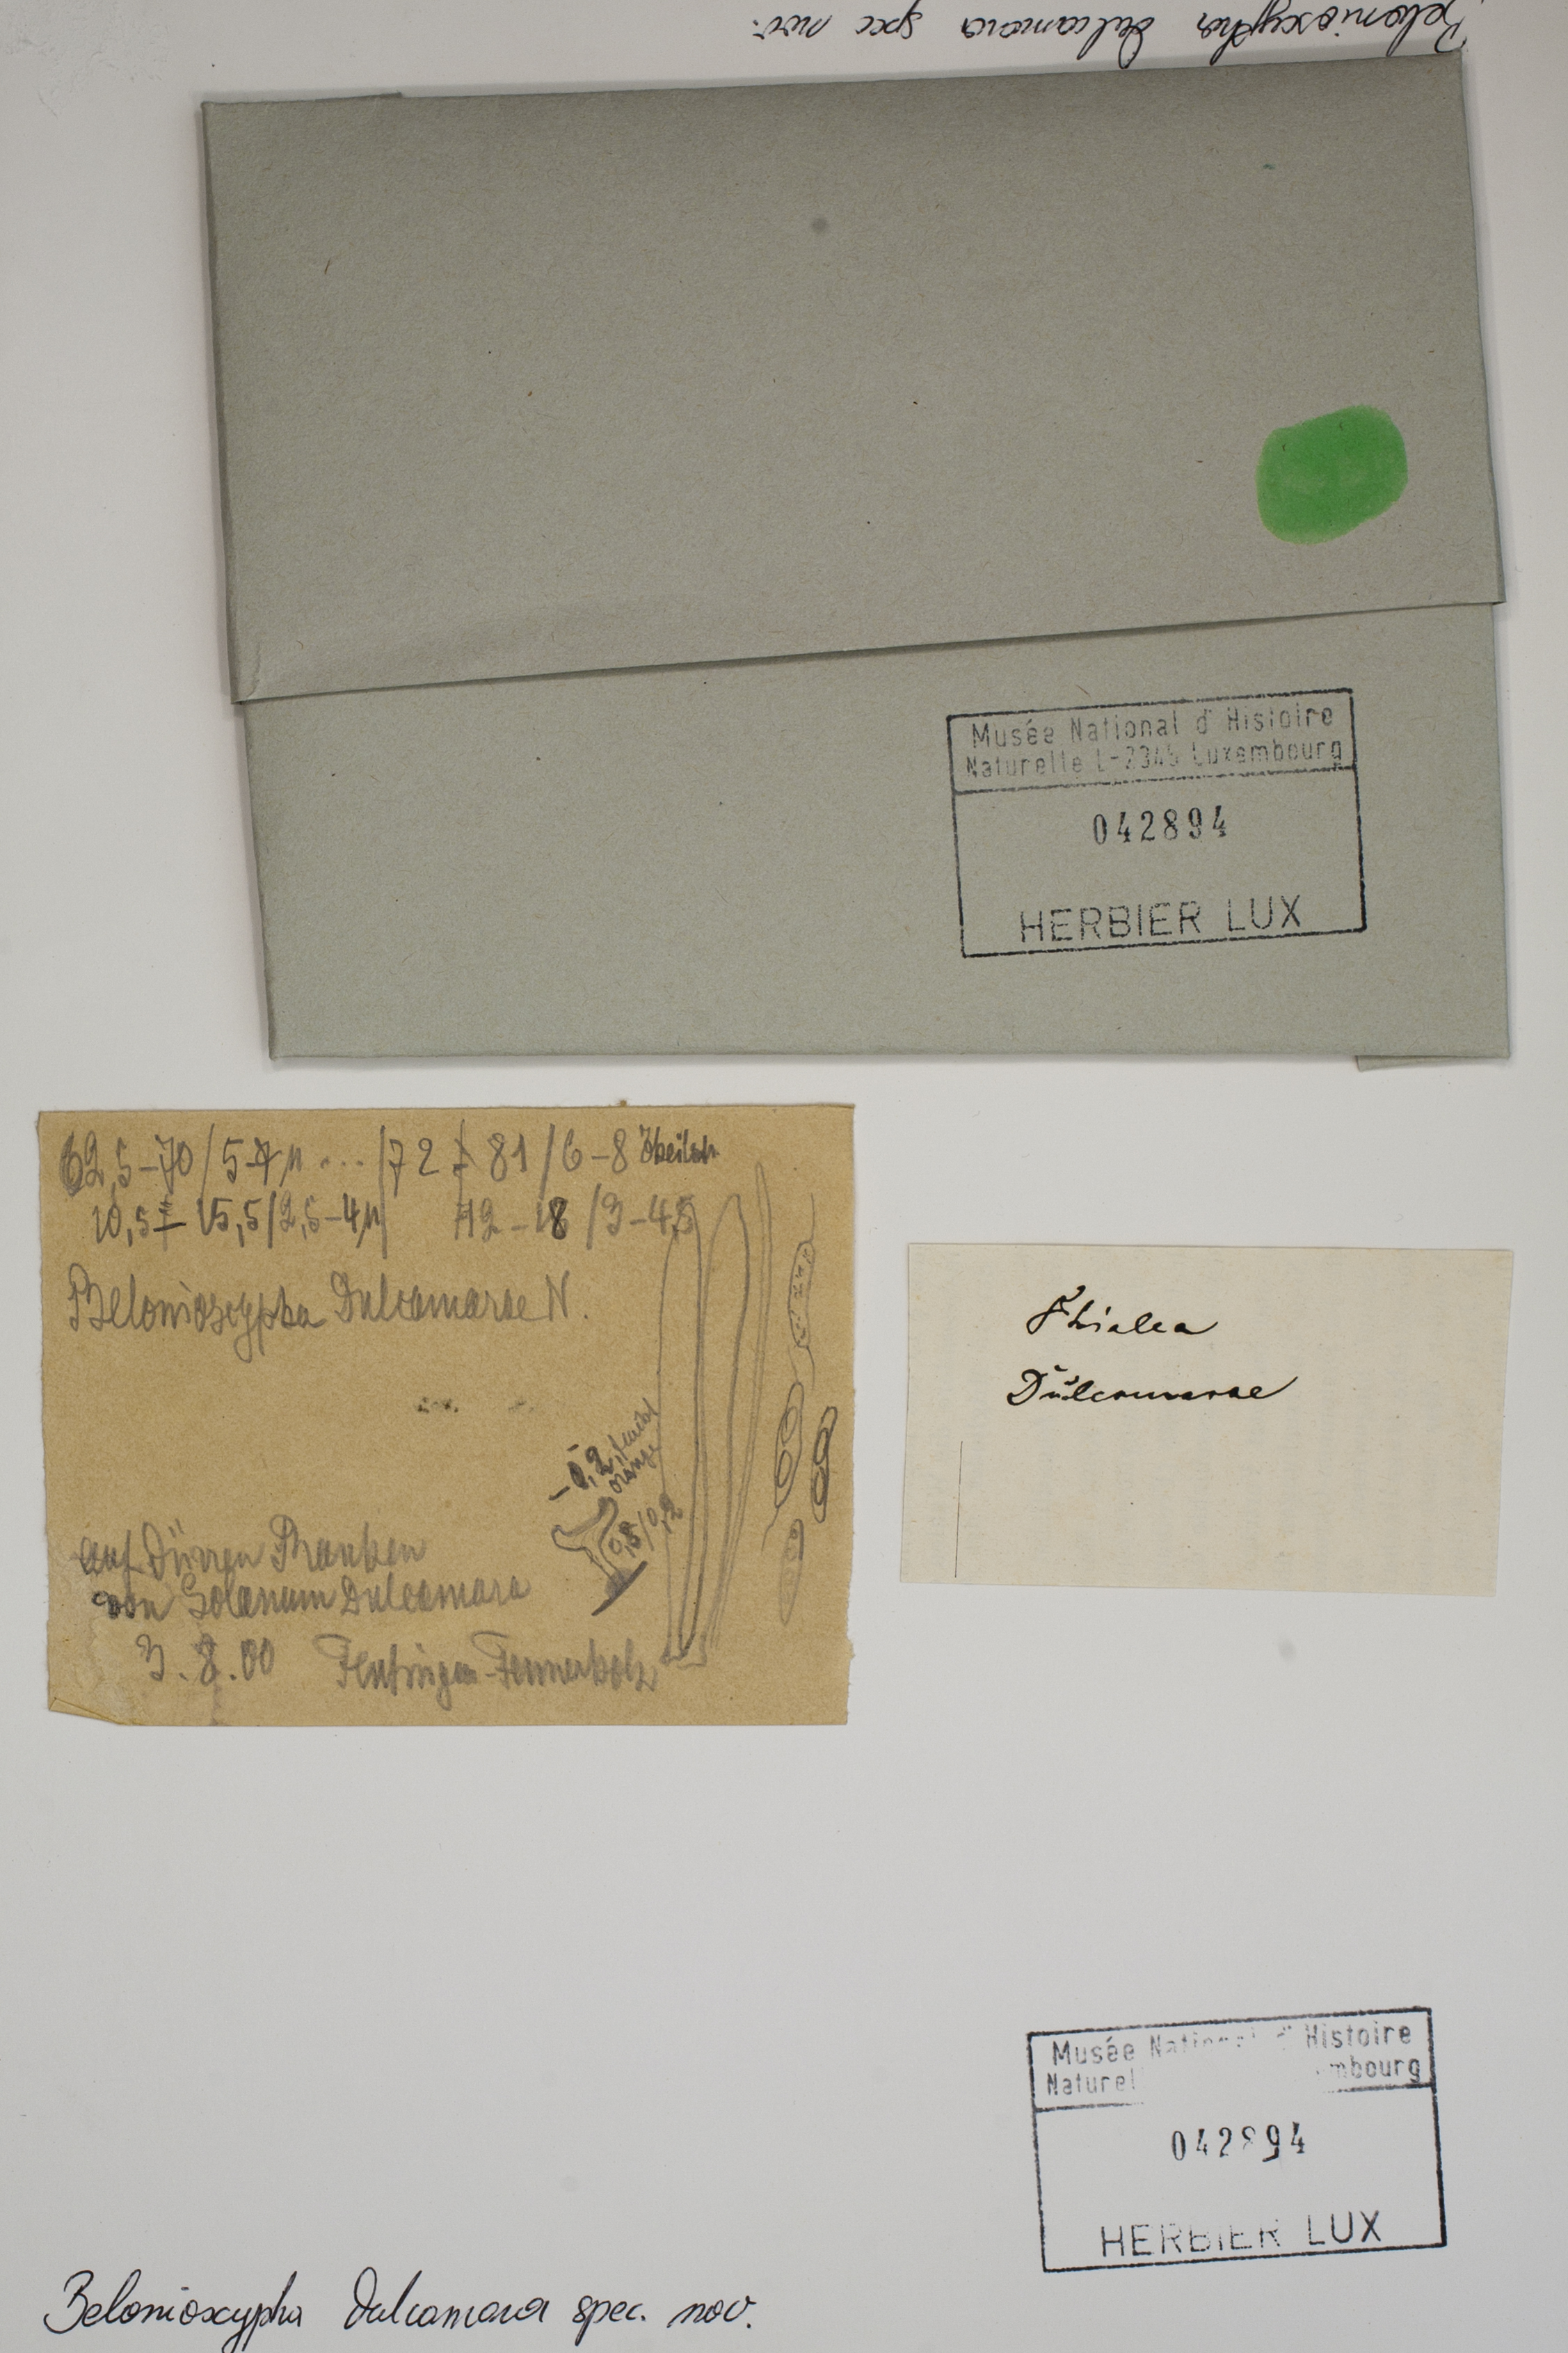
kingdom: Fungi
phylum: Ascomycota
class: Leotiomycetes
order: Helotiales
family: Helotiaceae
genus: Belonioscypha
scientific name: Belonioscypha dulcamarae
